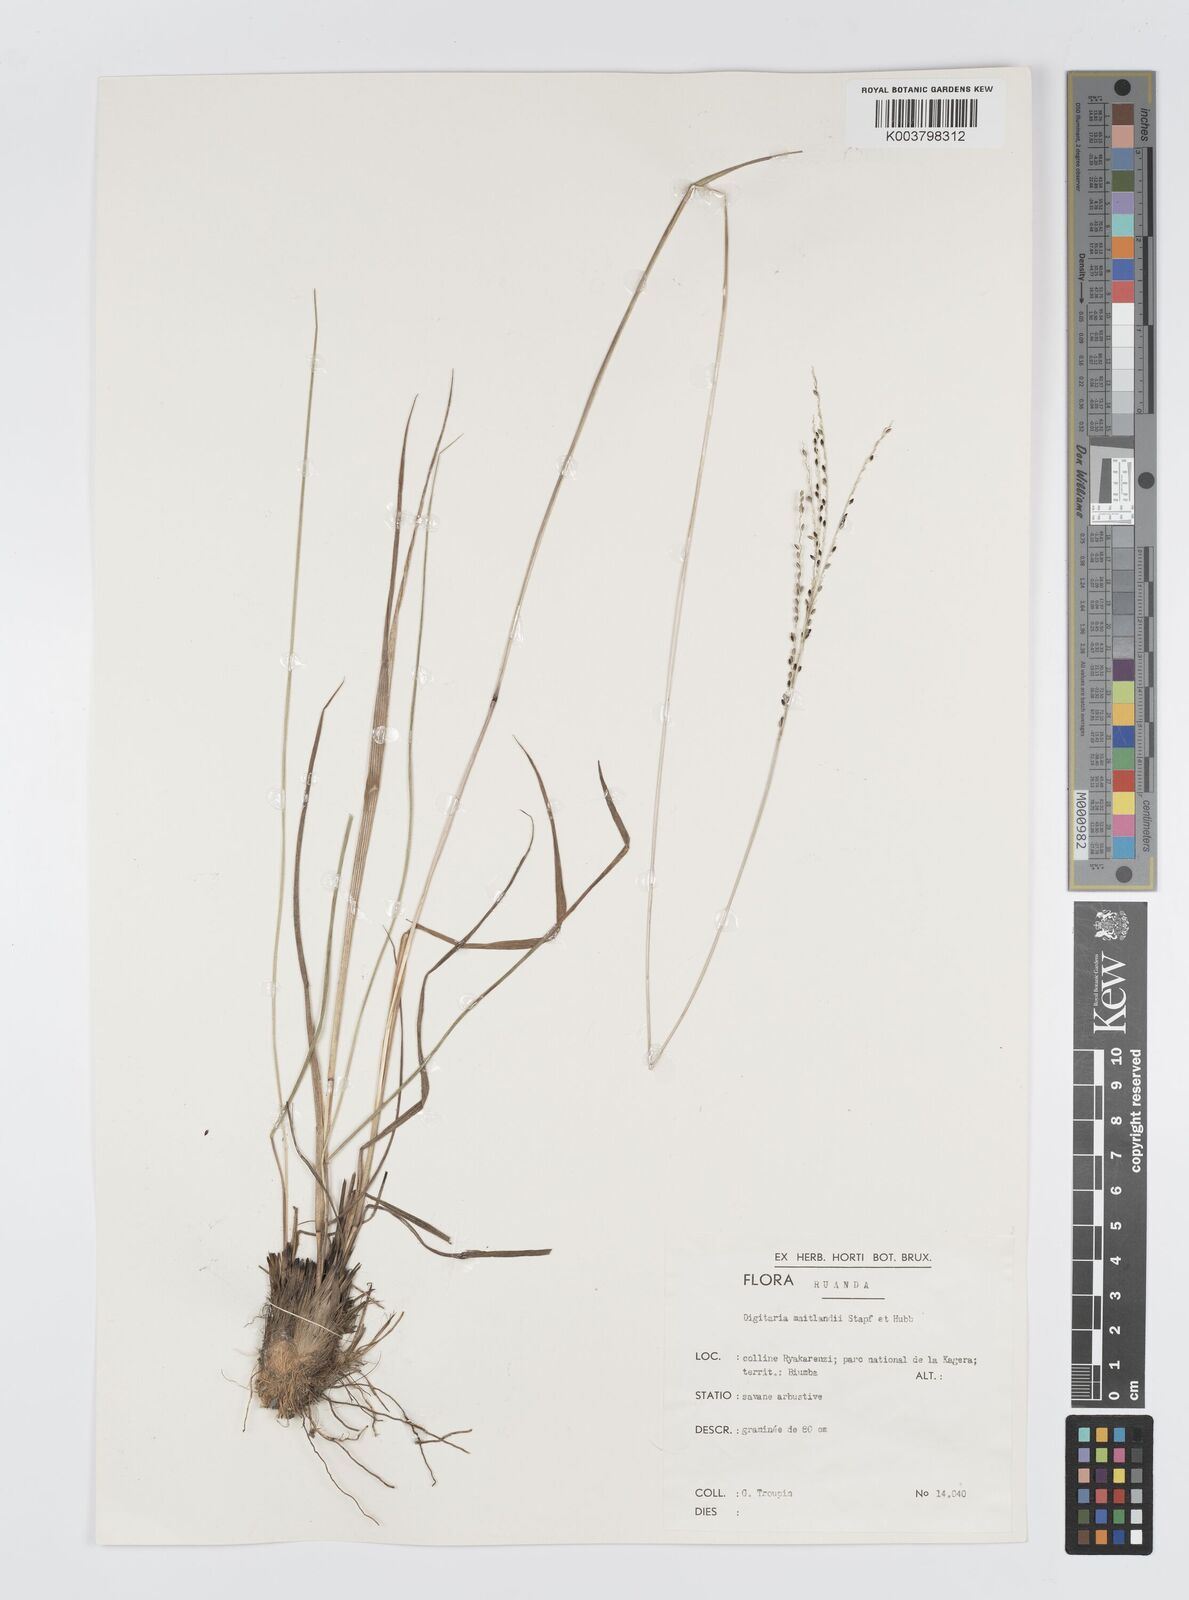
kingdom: Plantae
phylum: Tracheophyta
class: Liliopsida
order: Poales
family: Poaceae
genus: Digitaria
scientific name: Digitaria maitlandii
